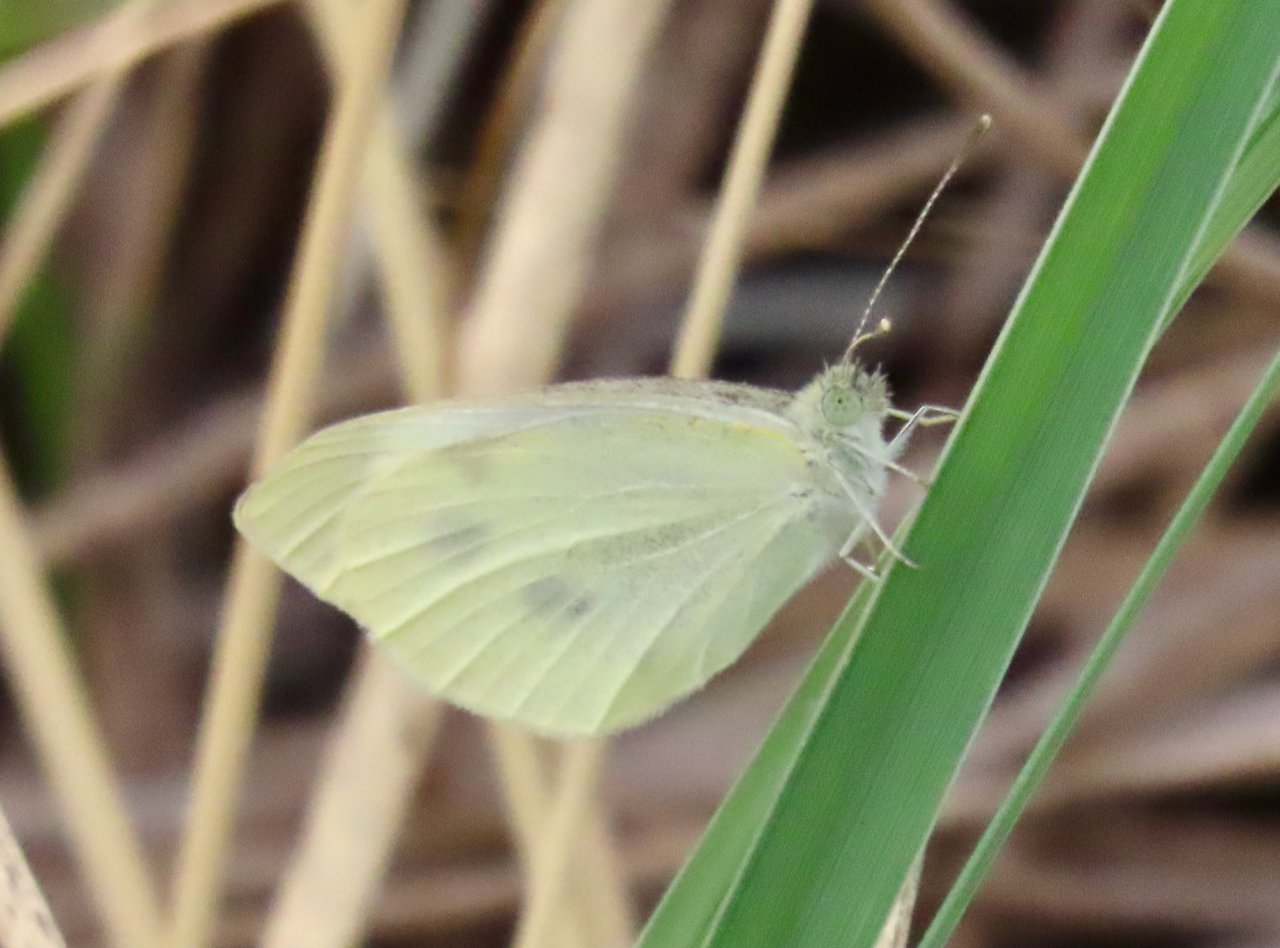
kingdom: Animalia
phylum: Arthropoda
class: Insecta
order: Lepidoptera
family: Pieridae
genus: Pieris
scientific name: Pieris rapae
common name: Cabbage White
